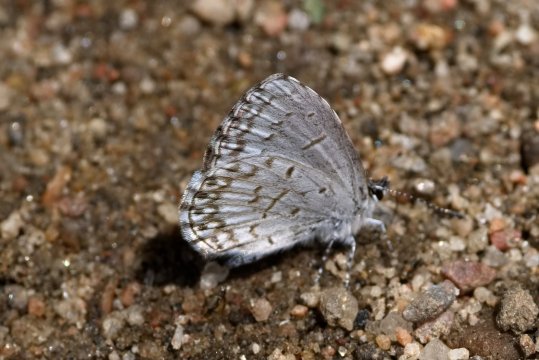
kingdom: Animalia
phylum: Arthropoda
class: Insecta
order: Lepidoptera
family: Lycaenidae
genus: Celastrina
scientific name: Celastrina lucia
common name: Northern Spring Azure
